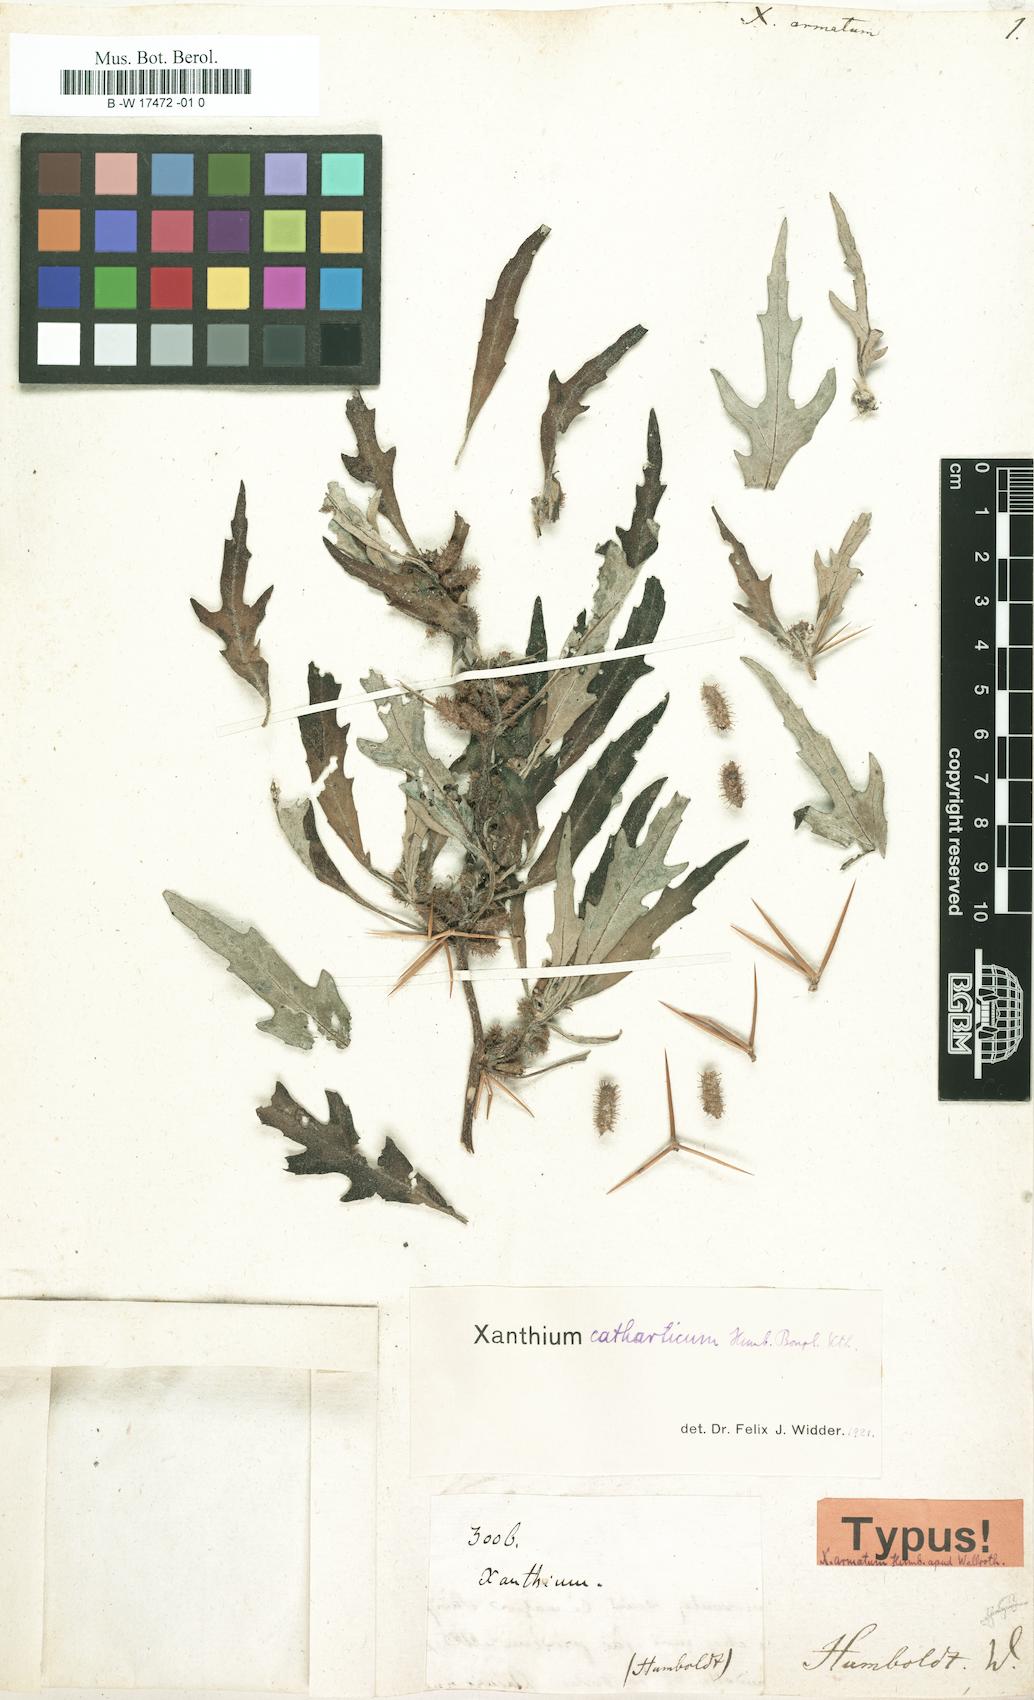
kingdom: Plantae
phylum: Tracheophyta
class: Magnoliopsida
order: Asterales
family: Asteraceae
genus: Xanthium
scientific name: Xanthium spinosum
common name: Spiny cocklebur
